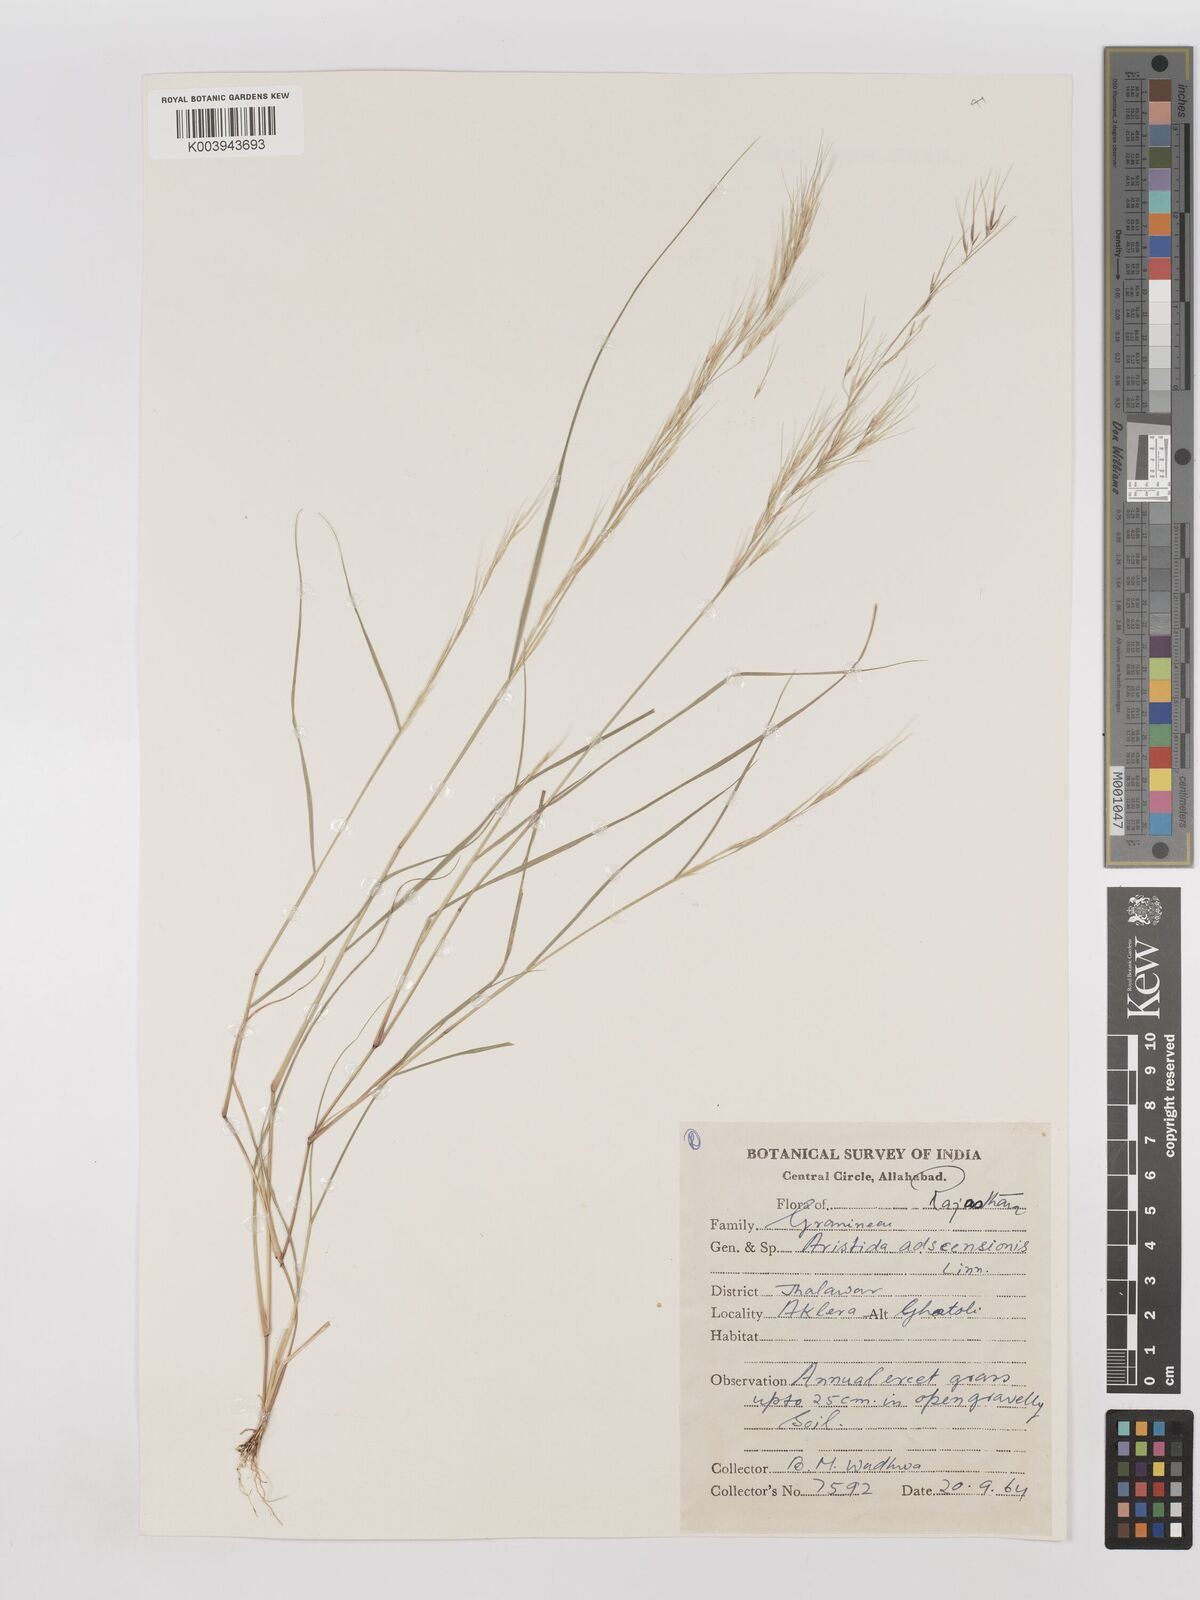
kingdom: Plantae
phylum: Tracheophyta
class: Liliopsida
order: Poales
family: Poaceae
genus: Aristida
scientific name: Aristida adscensionis
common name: Sixweeks threeawn
